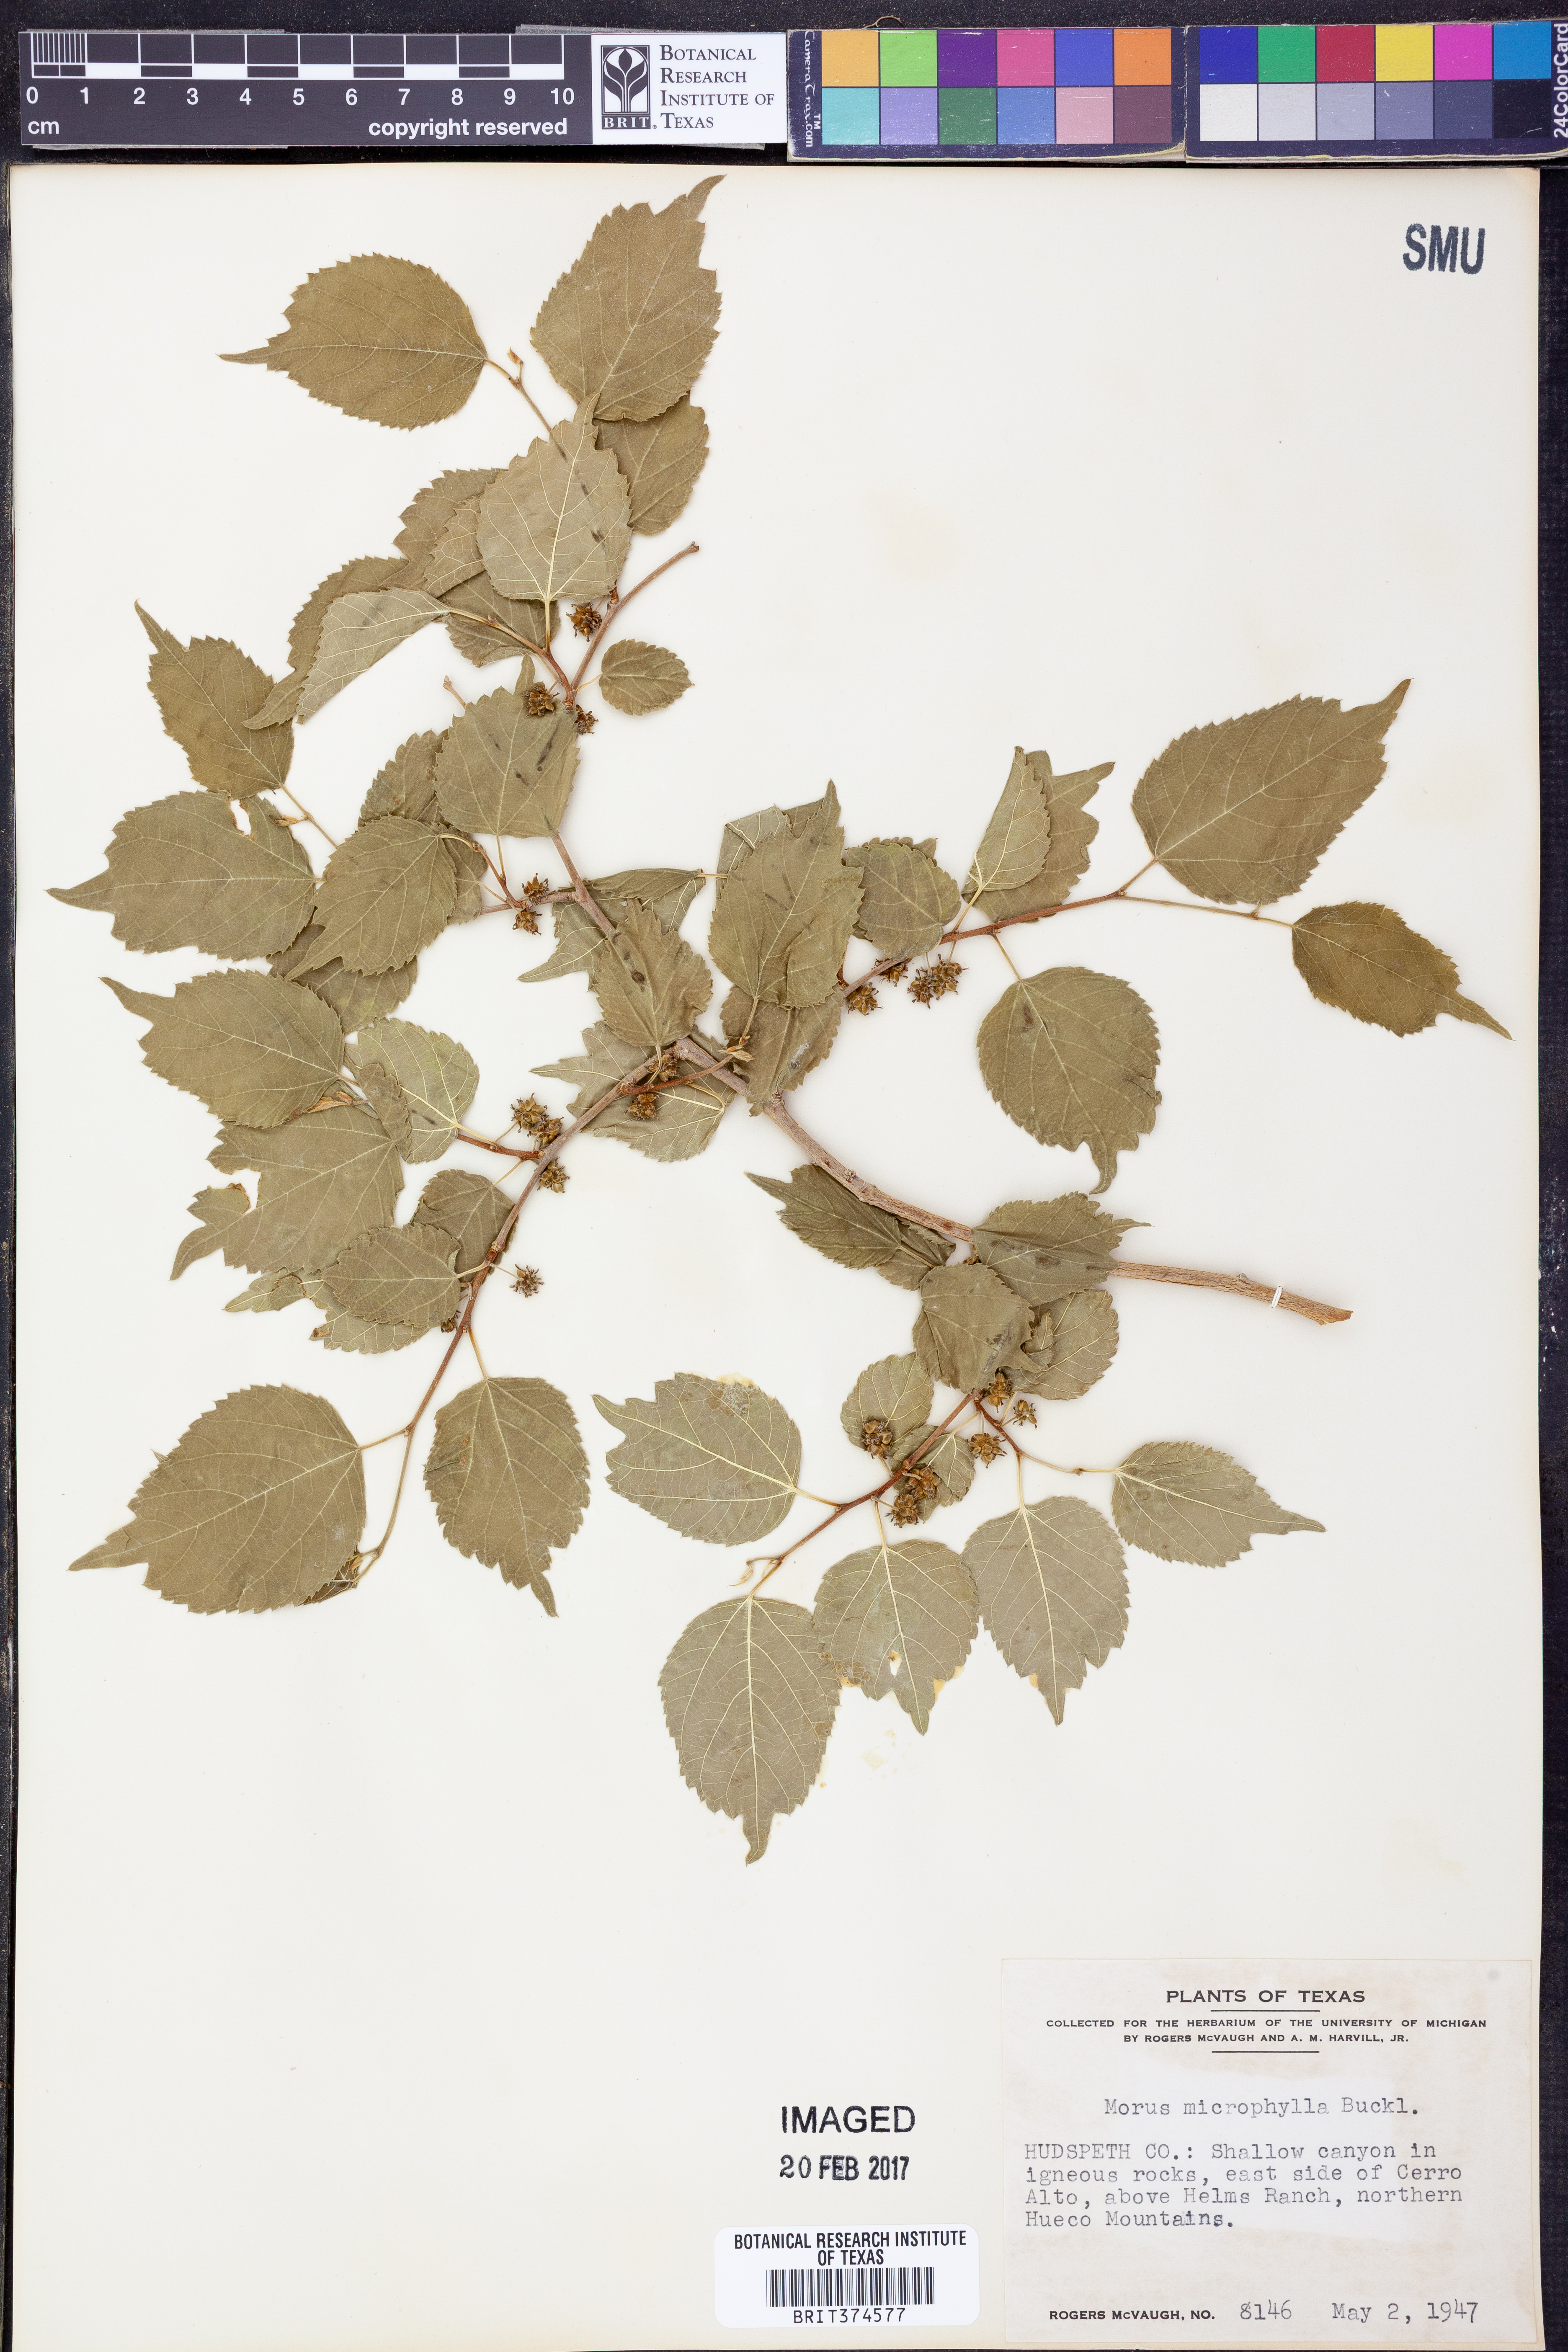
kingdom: Plantae
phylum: Tracheophyta
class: Magnoliopsida
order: Rosales
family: Moraceae
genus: Morus
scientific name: Morus microphylla
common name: Mexican mulberry
